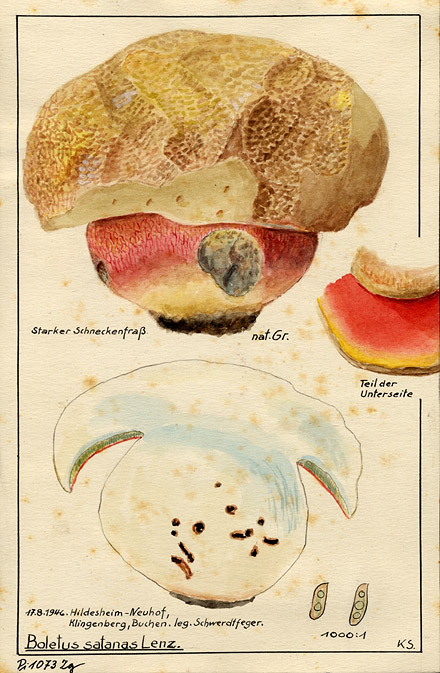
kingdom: Fungi
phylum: Basidiomycota
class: Agaricomycetes
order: Boletales
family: Boletaceae
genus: Rubroboletus
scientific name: Rubroboletus satanas
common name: Devil's bolete
